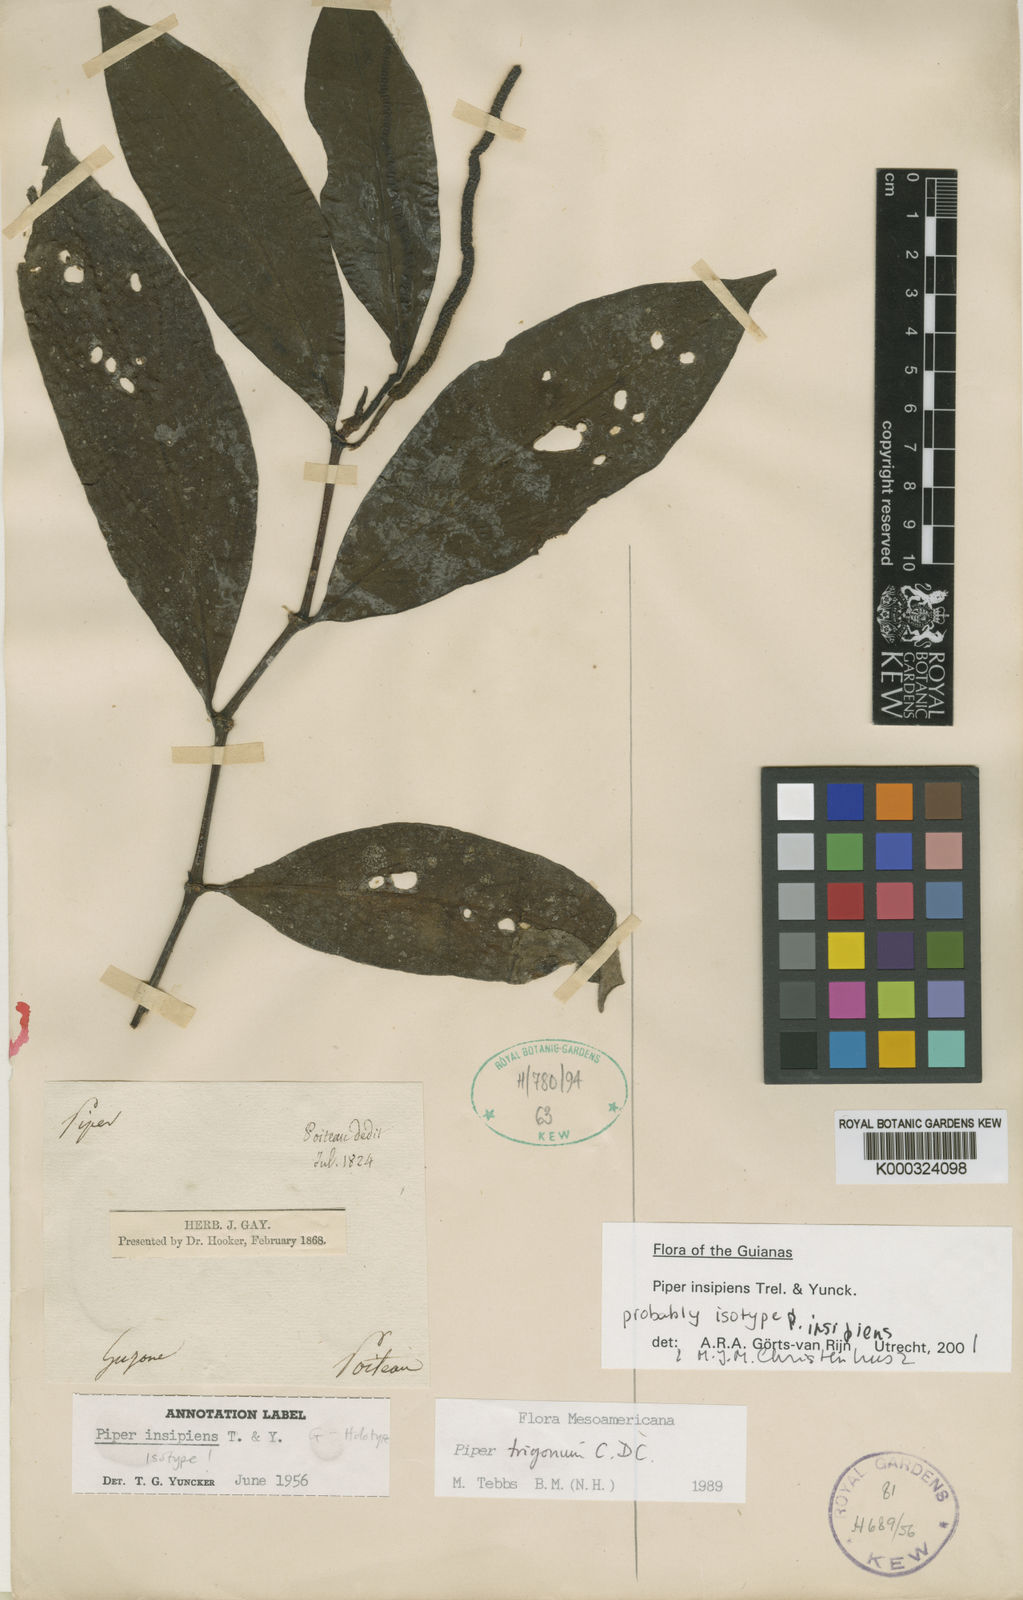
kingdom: Plantae
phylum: Tracheophyta
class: Magnoliopsida
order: Piperales
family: Piperaceae
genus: Piper
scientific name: Piper divaricatum
